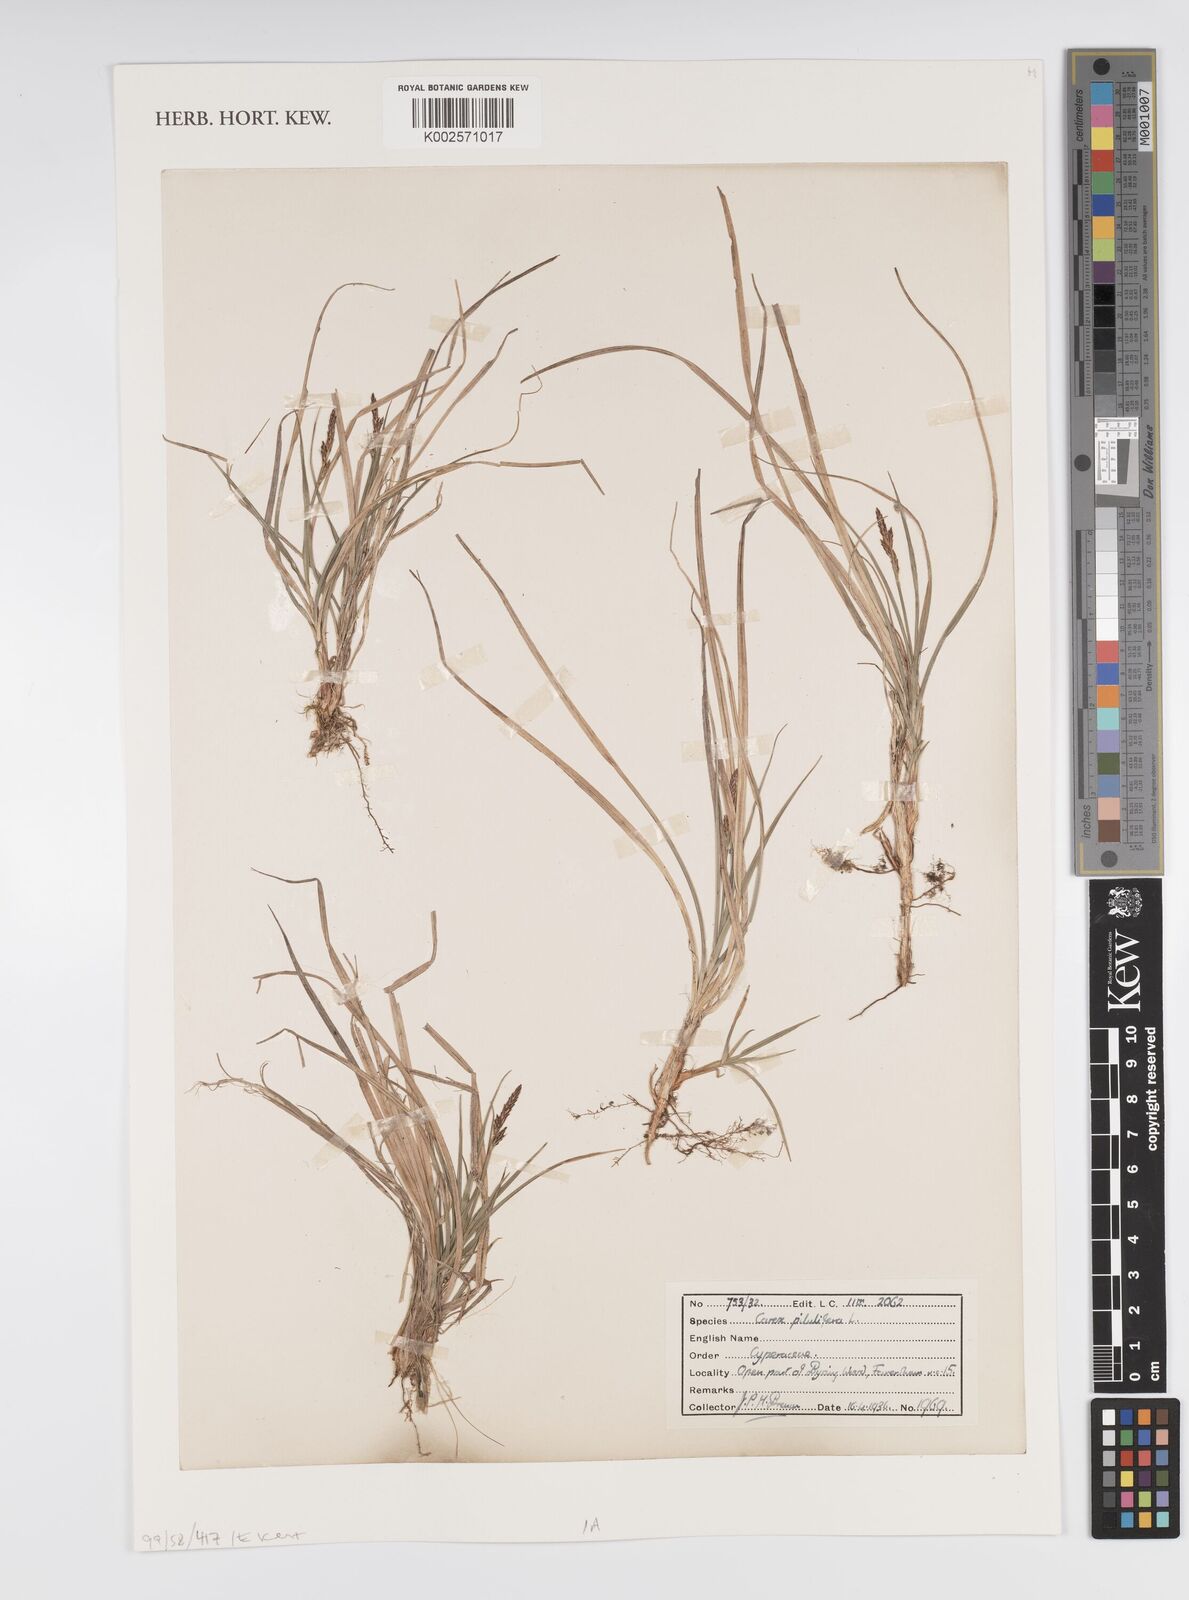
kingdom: Plantae
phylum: Tracheophyta
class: Liliopsida
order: Poales
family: Cyperaceae
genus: Carex
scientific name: Carex praecox
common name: Early sedge
